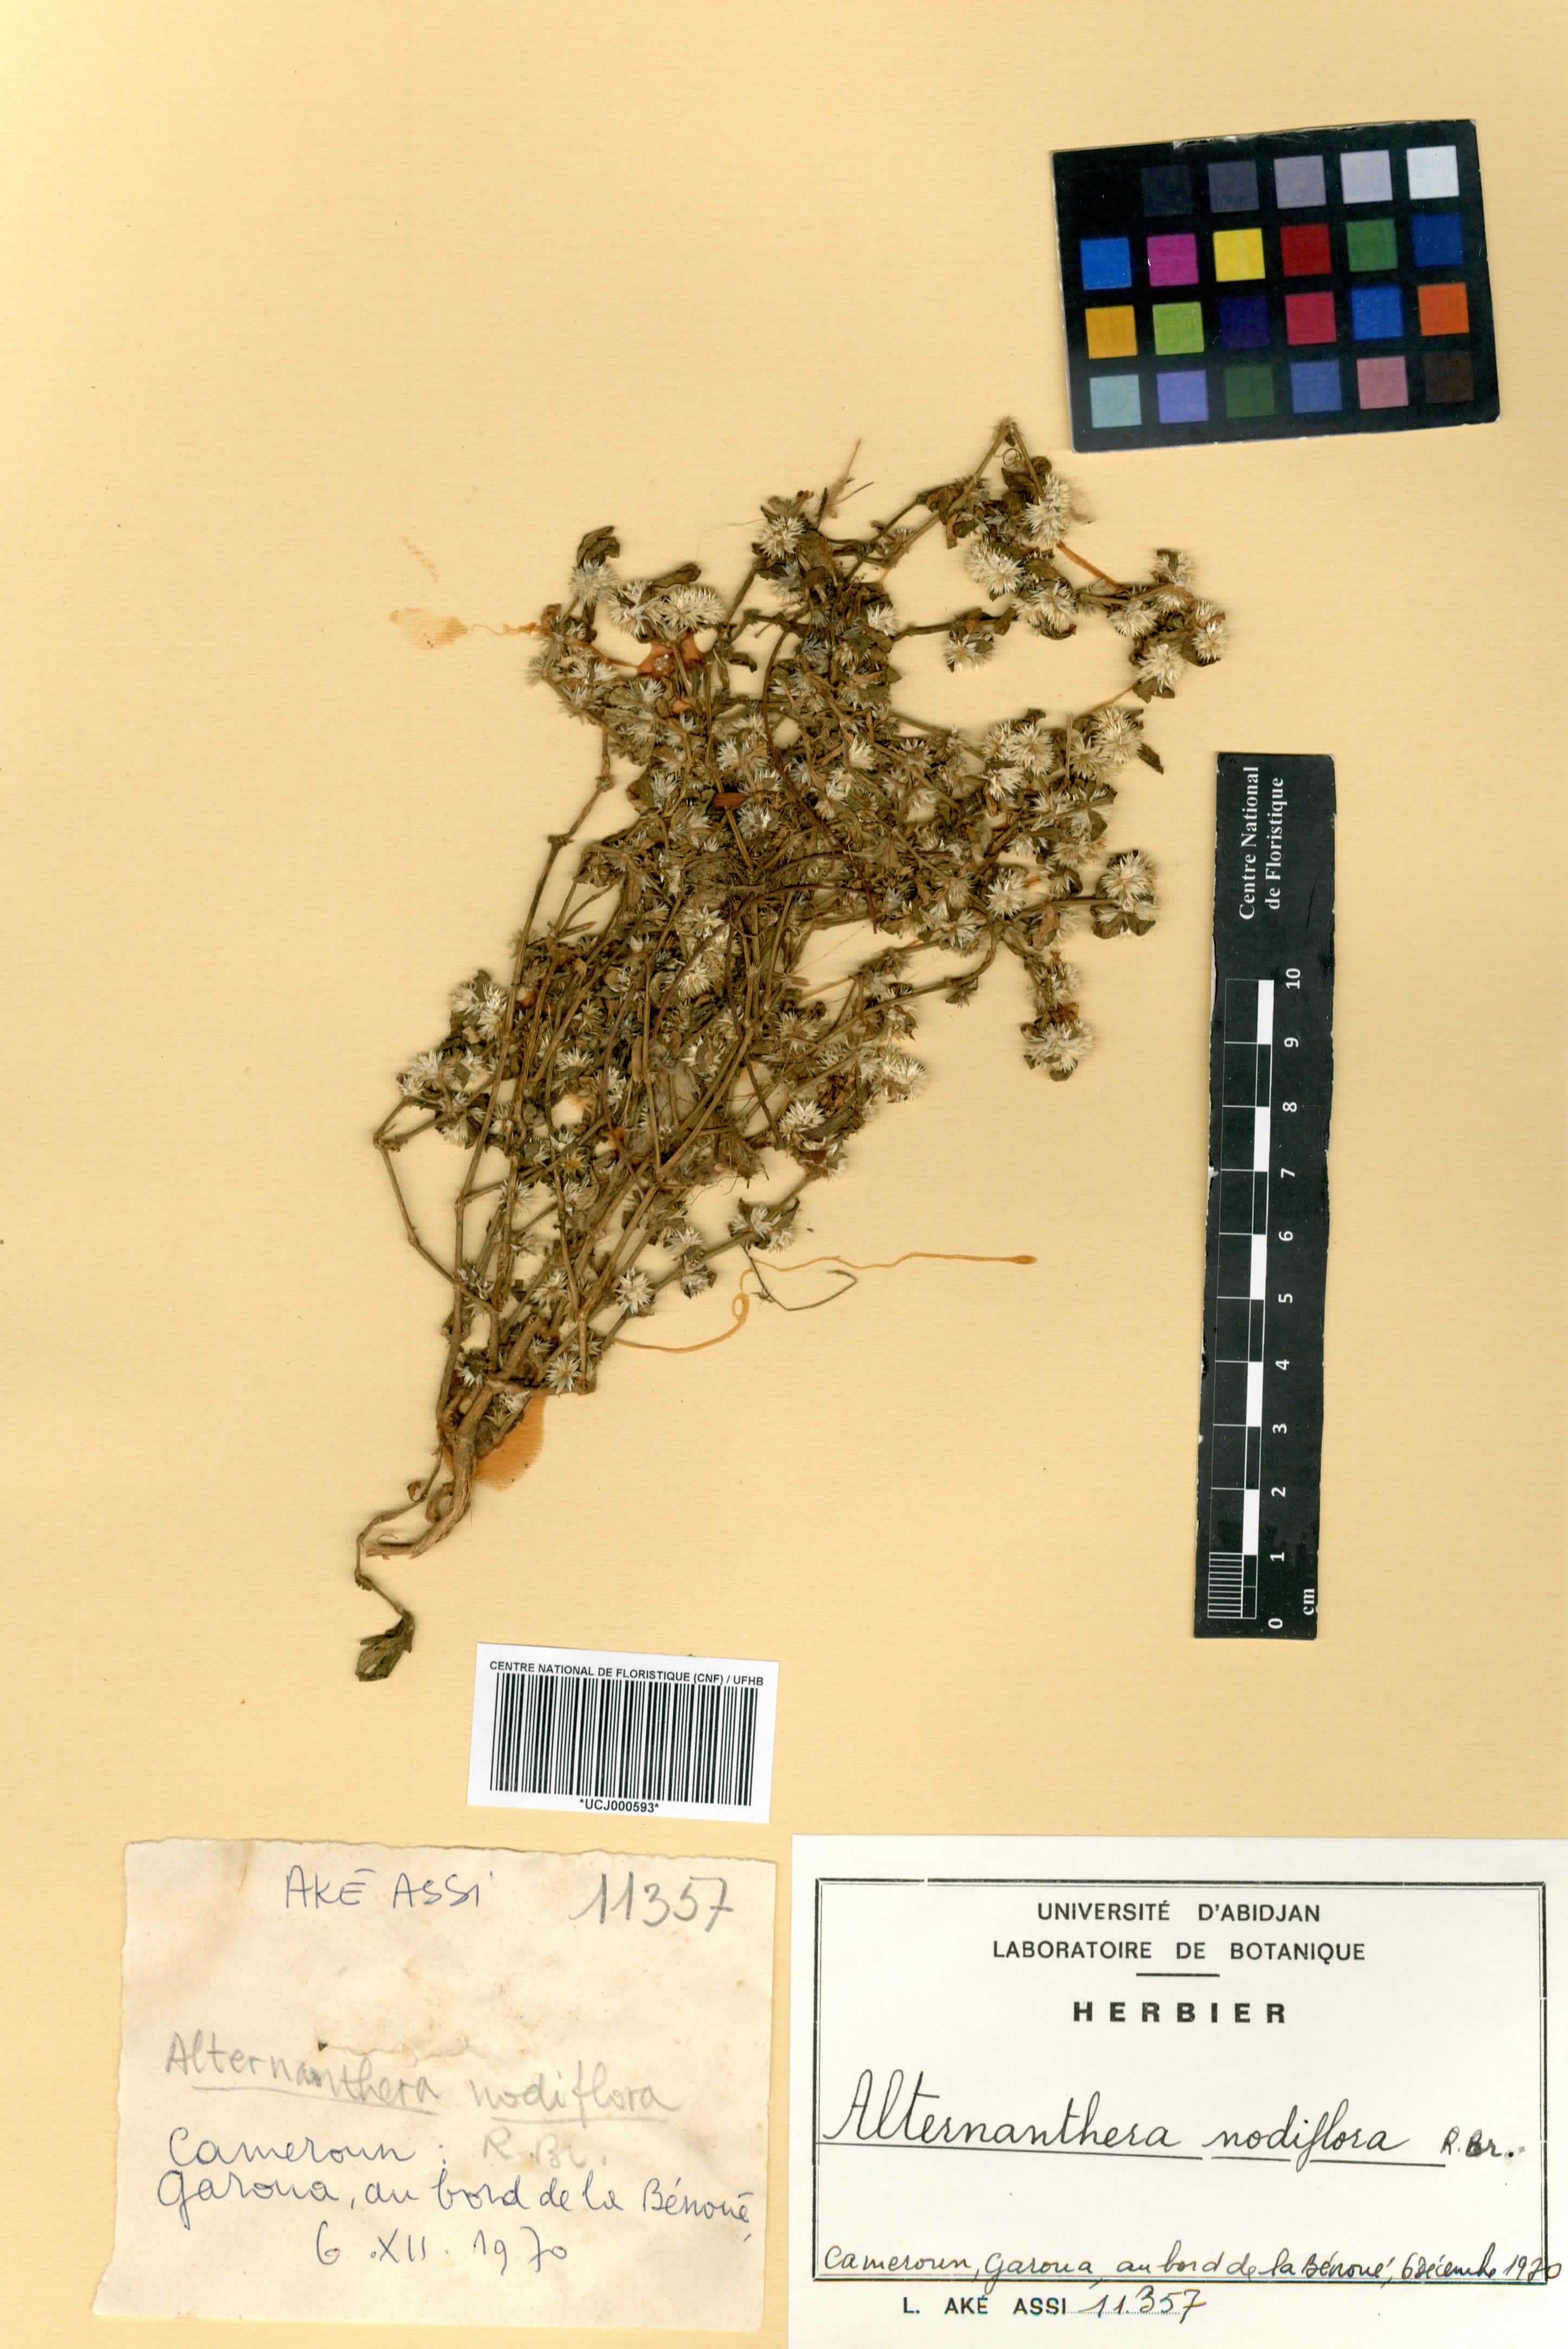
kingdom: Plantae
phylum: Tracheophyta
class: Magnoliopsida
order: Caryophyllales
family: Amaranthaceae
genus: Alternanthera
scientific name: Alternanthera sessilis
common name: Sessile joyweed
